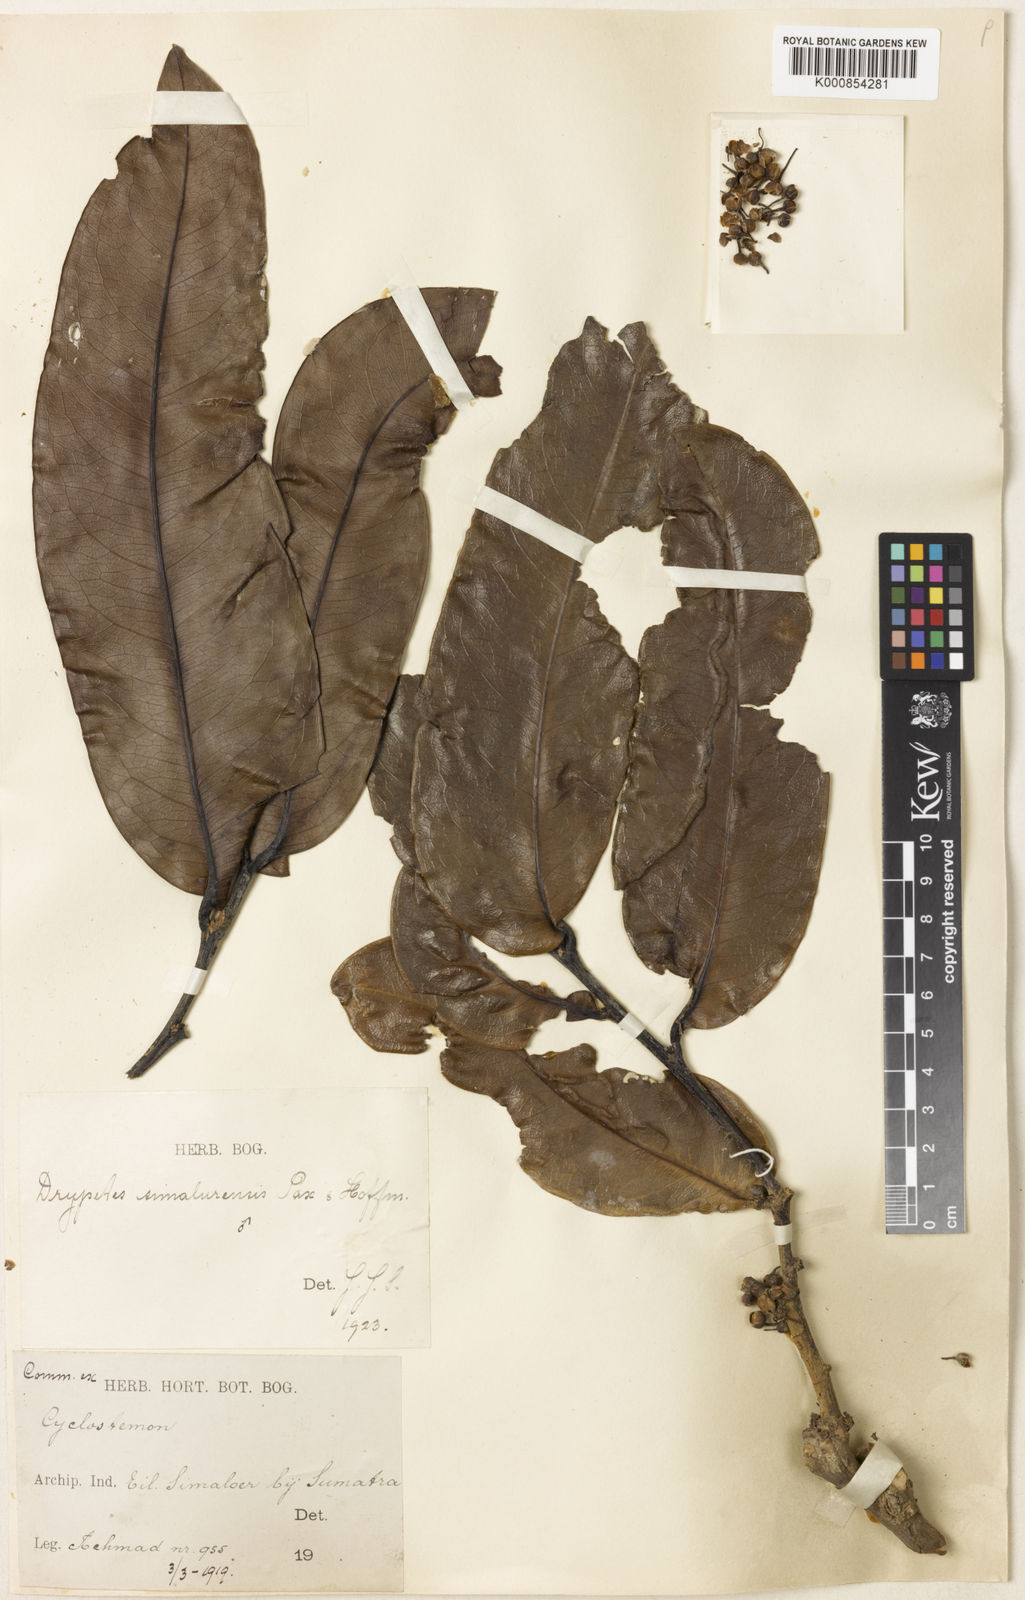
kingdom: Plantae
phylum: Tracheophyta
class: Magnoliopsida
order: Malpighiales
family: Putranjivaceae
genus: Drypetes
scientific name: Drypetes simalurensis
